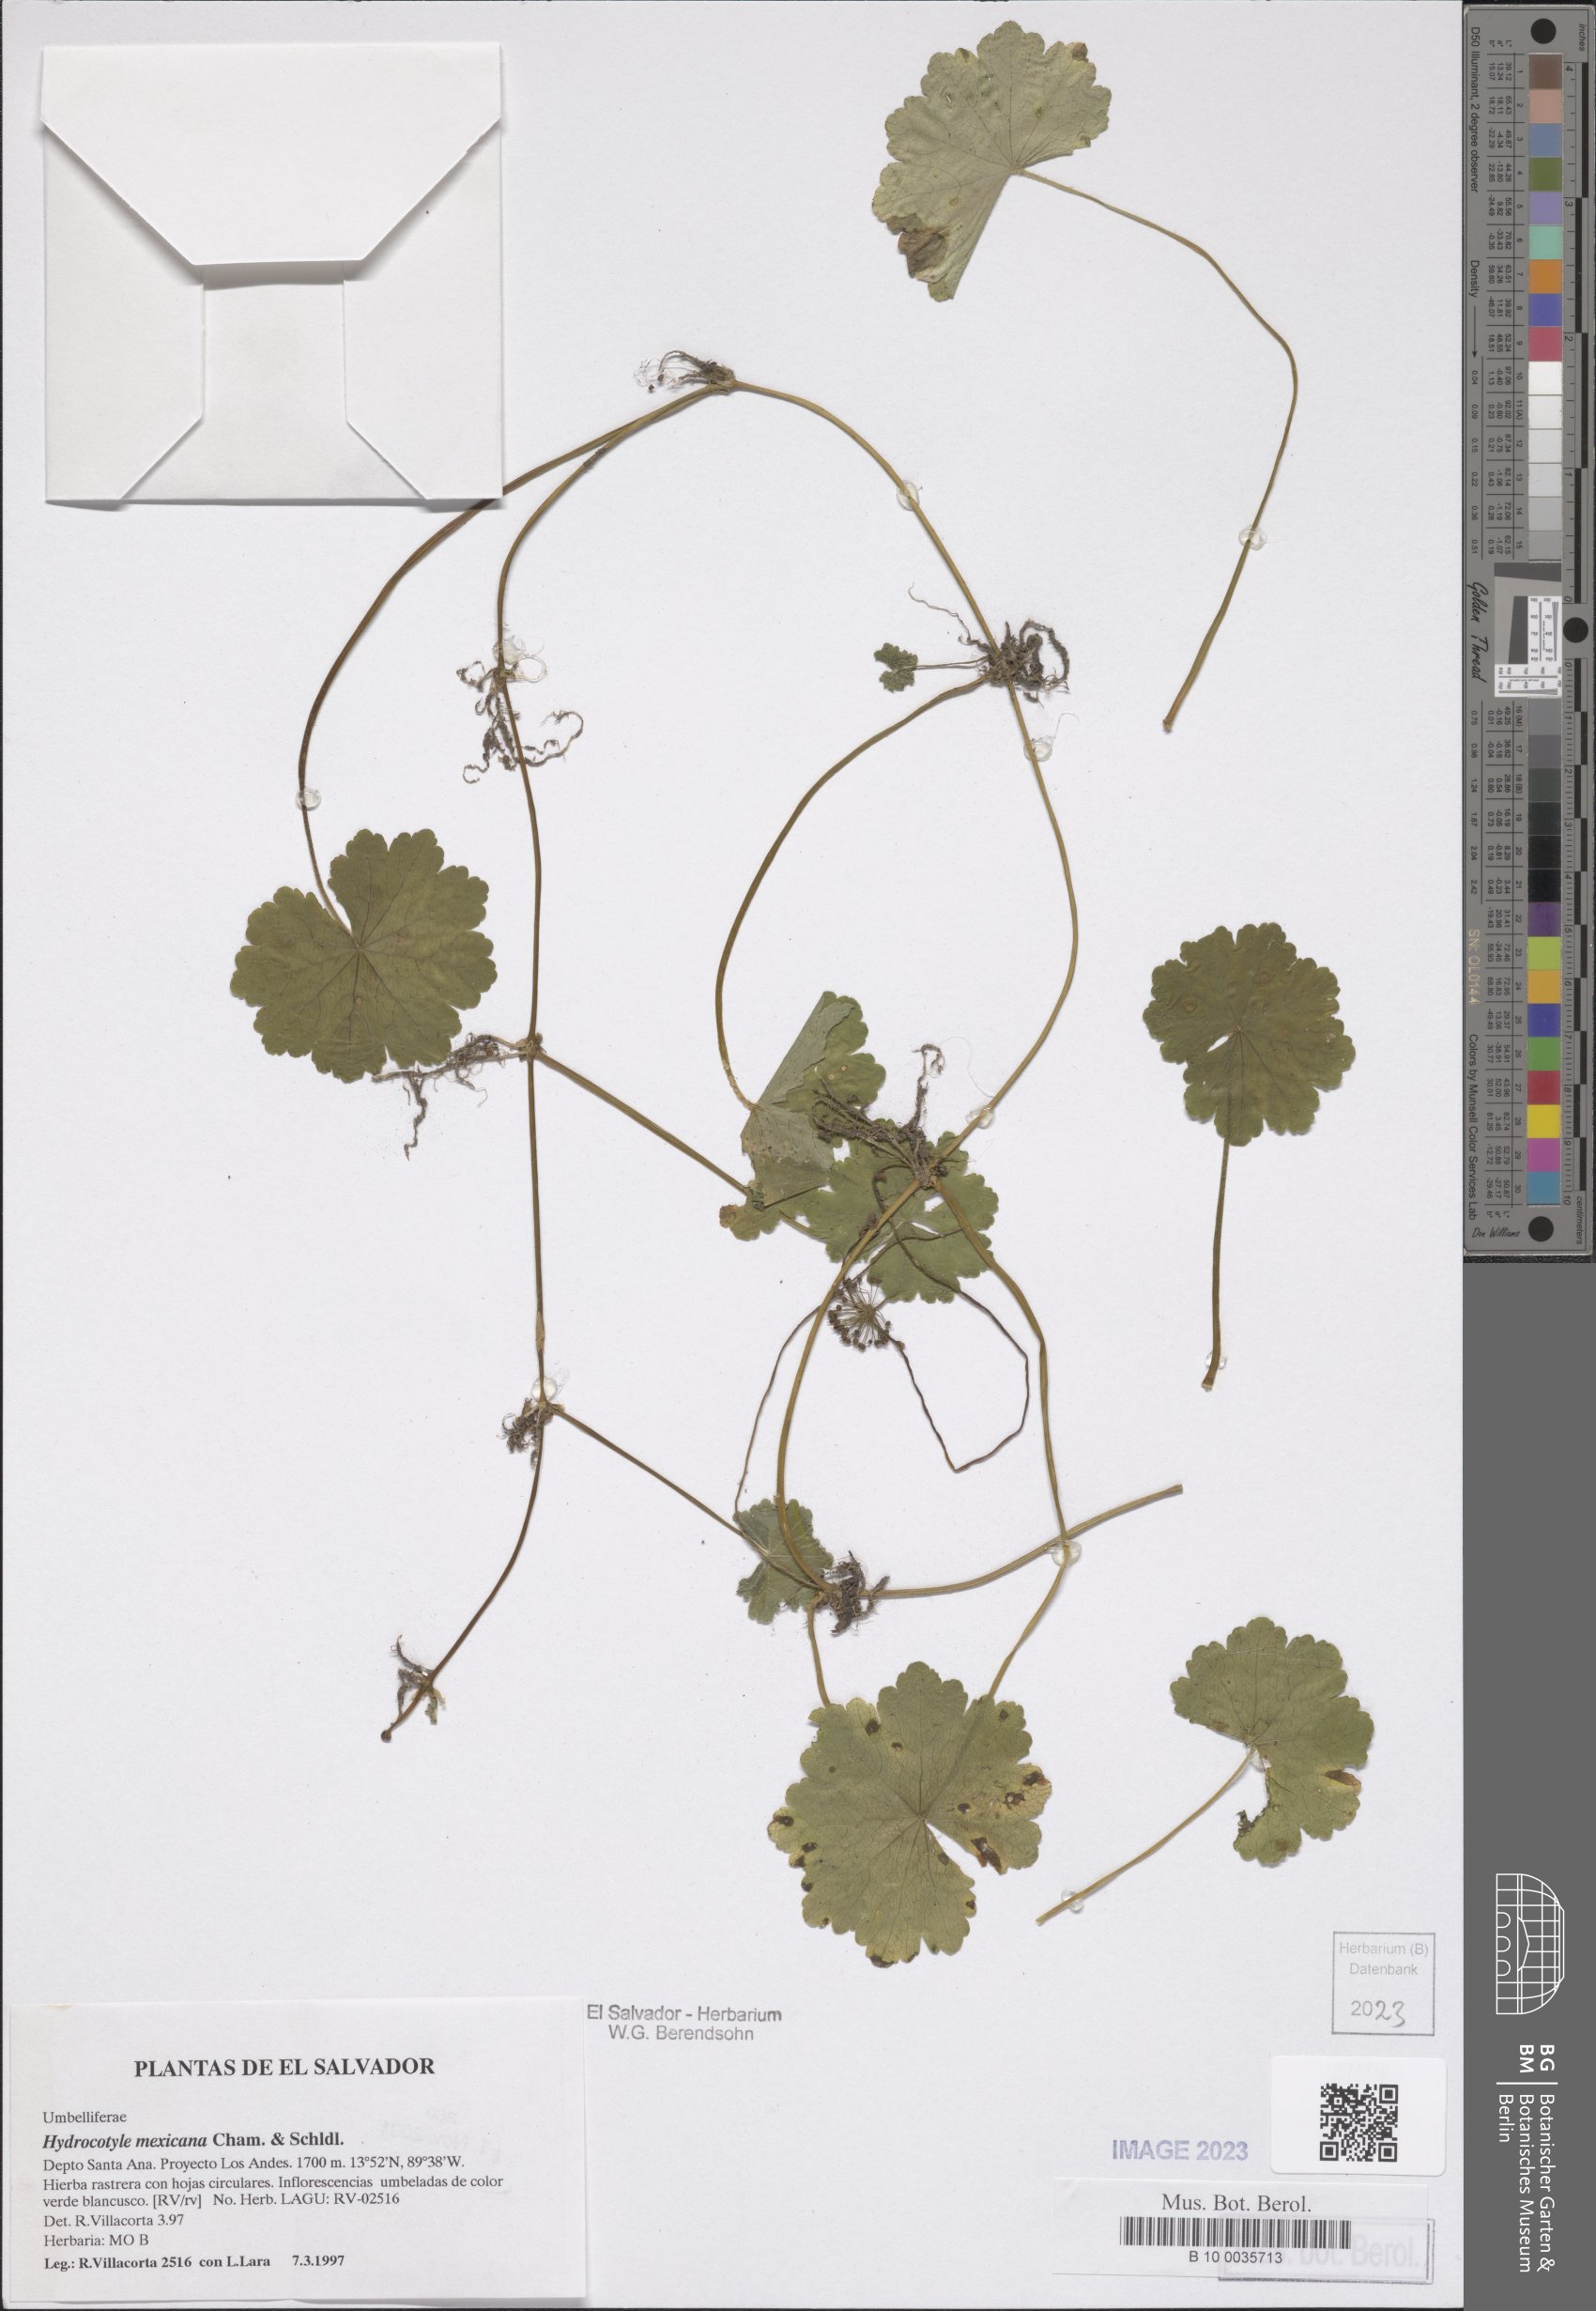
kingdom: Plantae
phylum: Tracheophyta
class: Magnoliopsida
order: Apiales
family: Araliaceae
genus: Hydrocotyle
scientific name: Hydrocotyle mexicana
